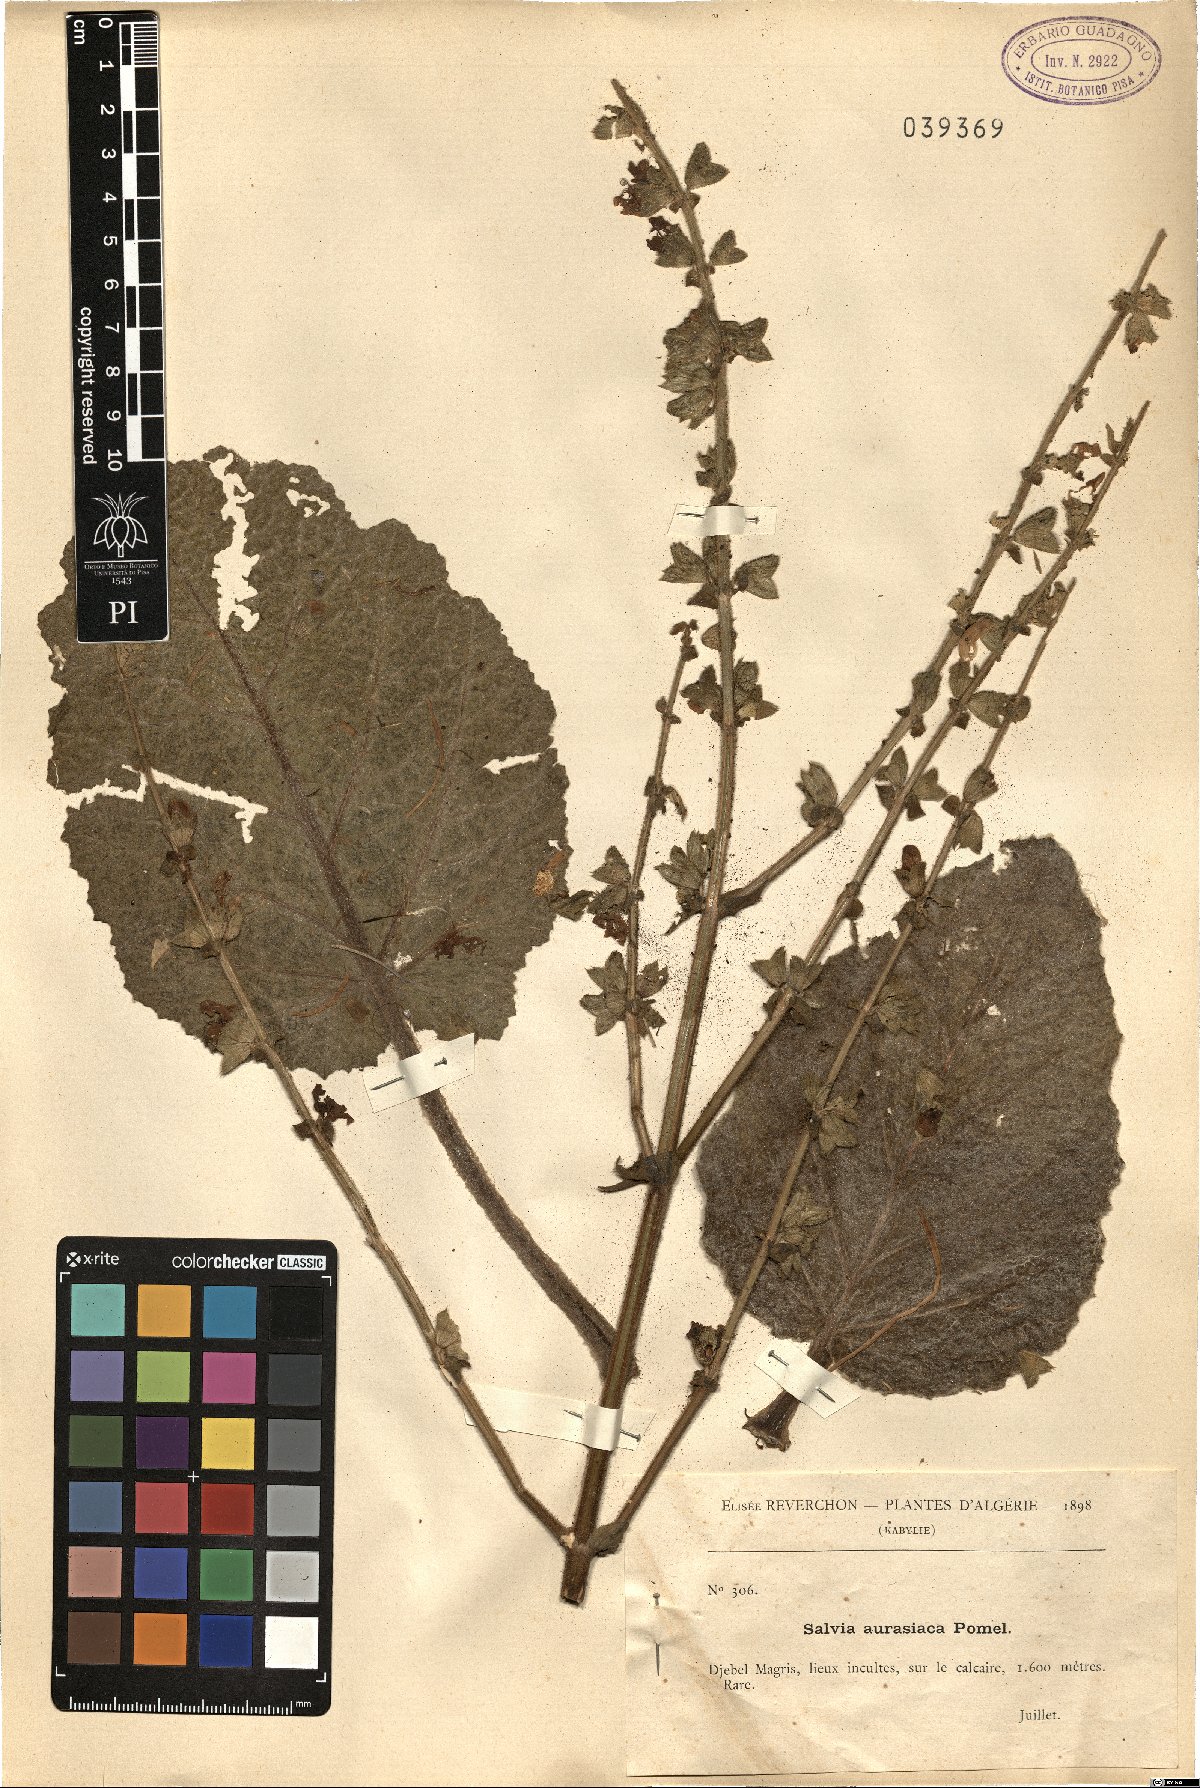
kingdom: Plantae
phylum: Tracheophyta
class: Magnoliopsida
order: Lamiales
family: Lamiaceae
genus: Salvia
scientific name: Salvia argentea
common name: Silver sage
